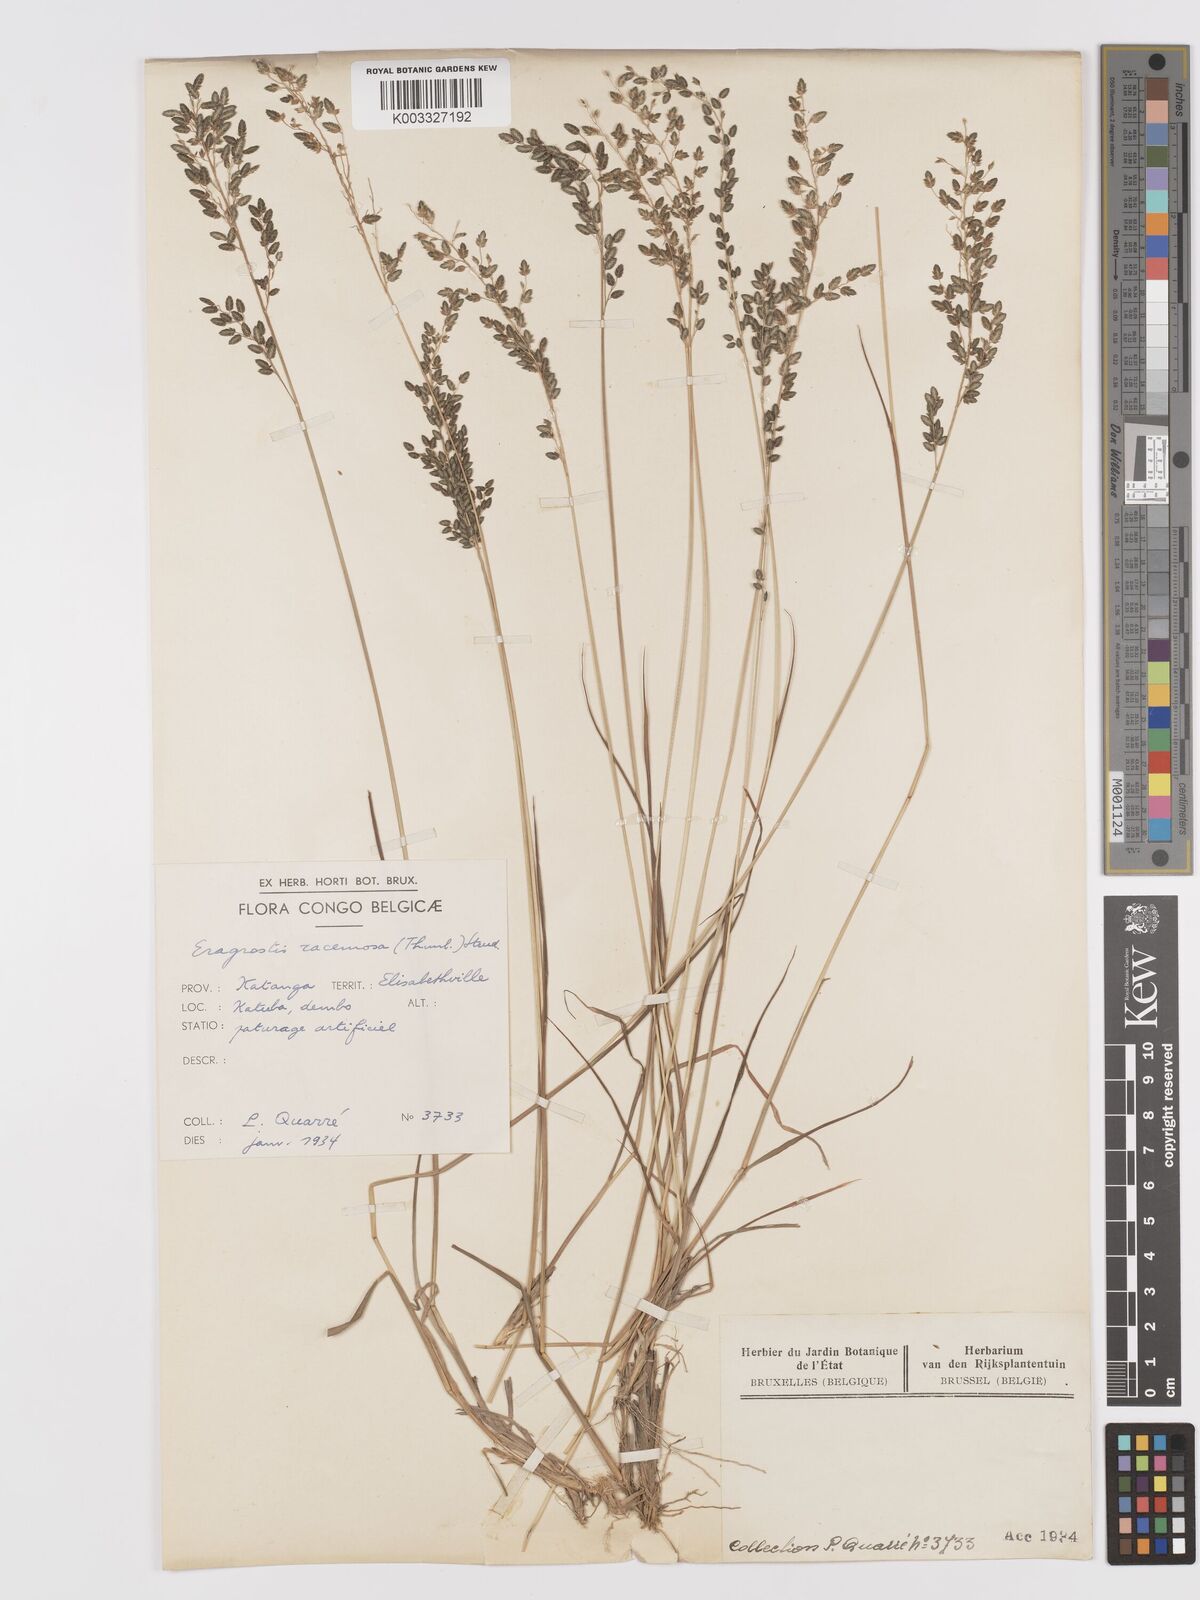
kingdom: Plantae
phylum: Tracheophyta
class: Liliopsida
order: Poales
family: Poaceae
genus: Eragrostis
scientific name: Eragrostis racemosa
